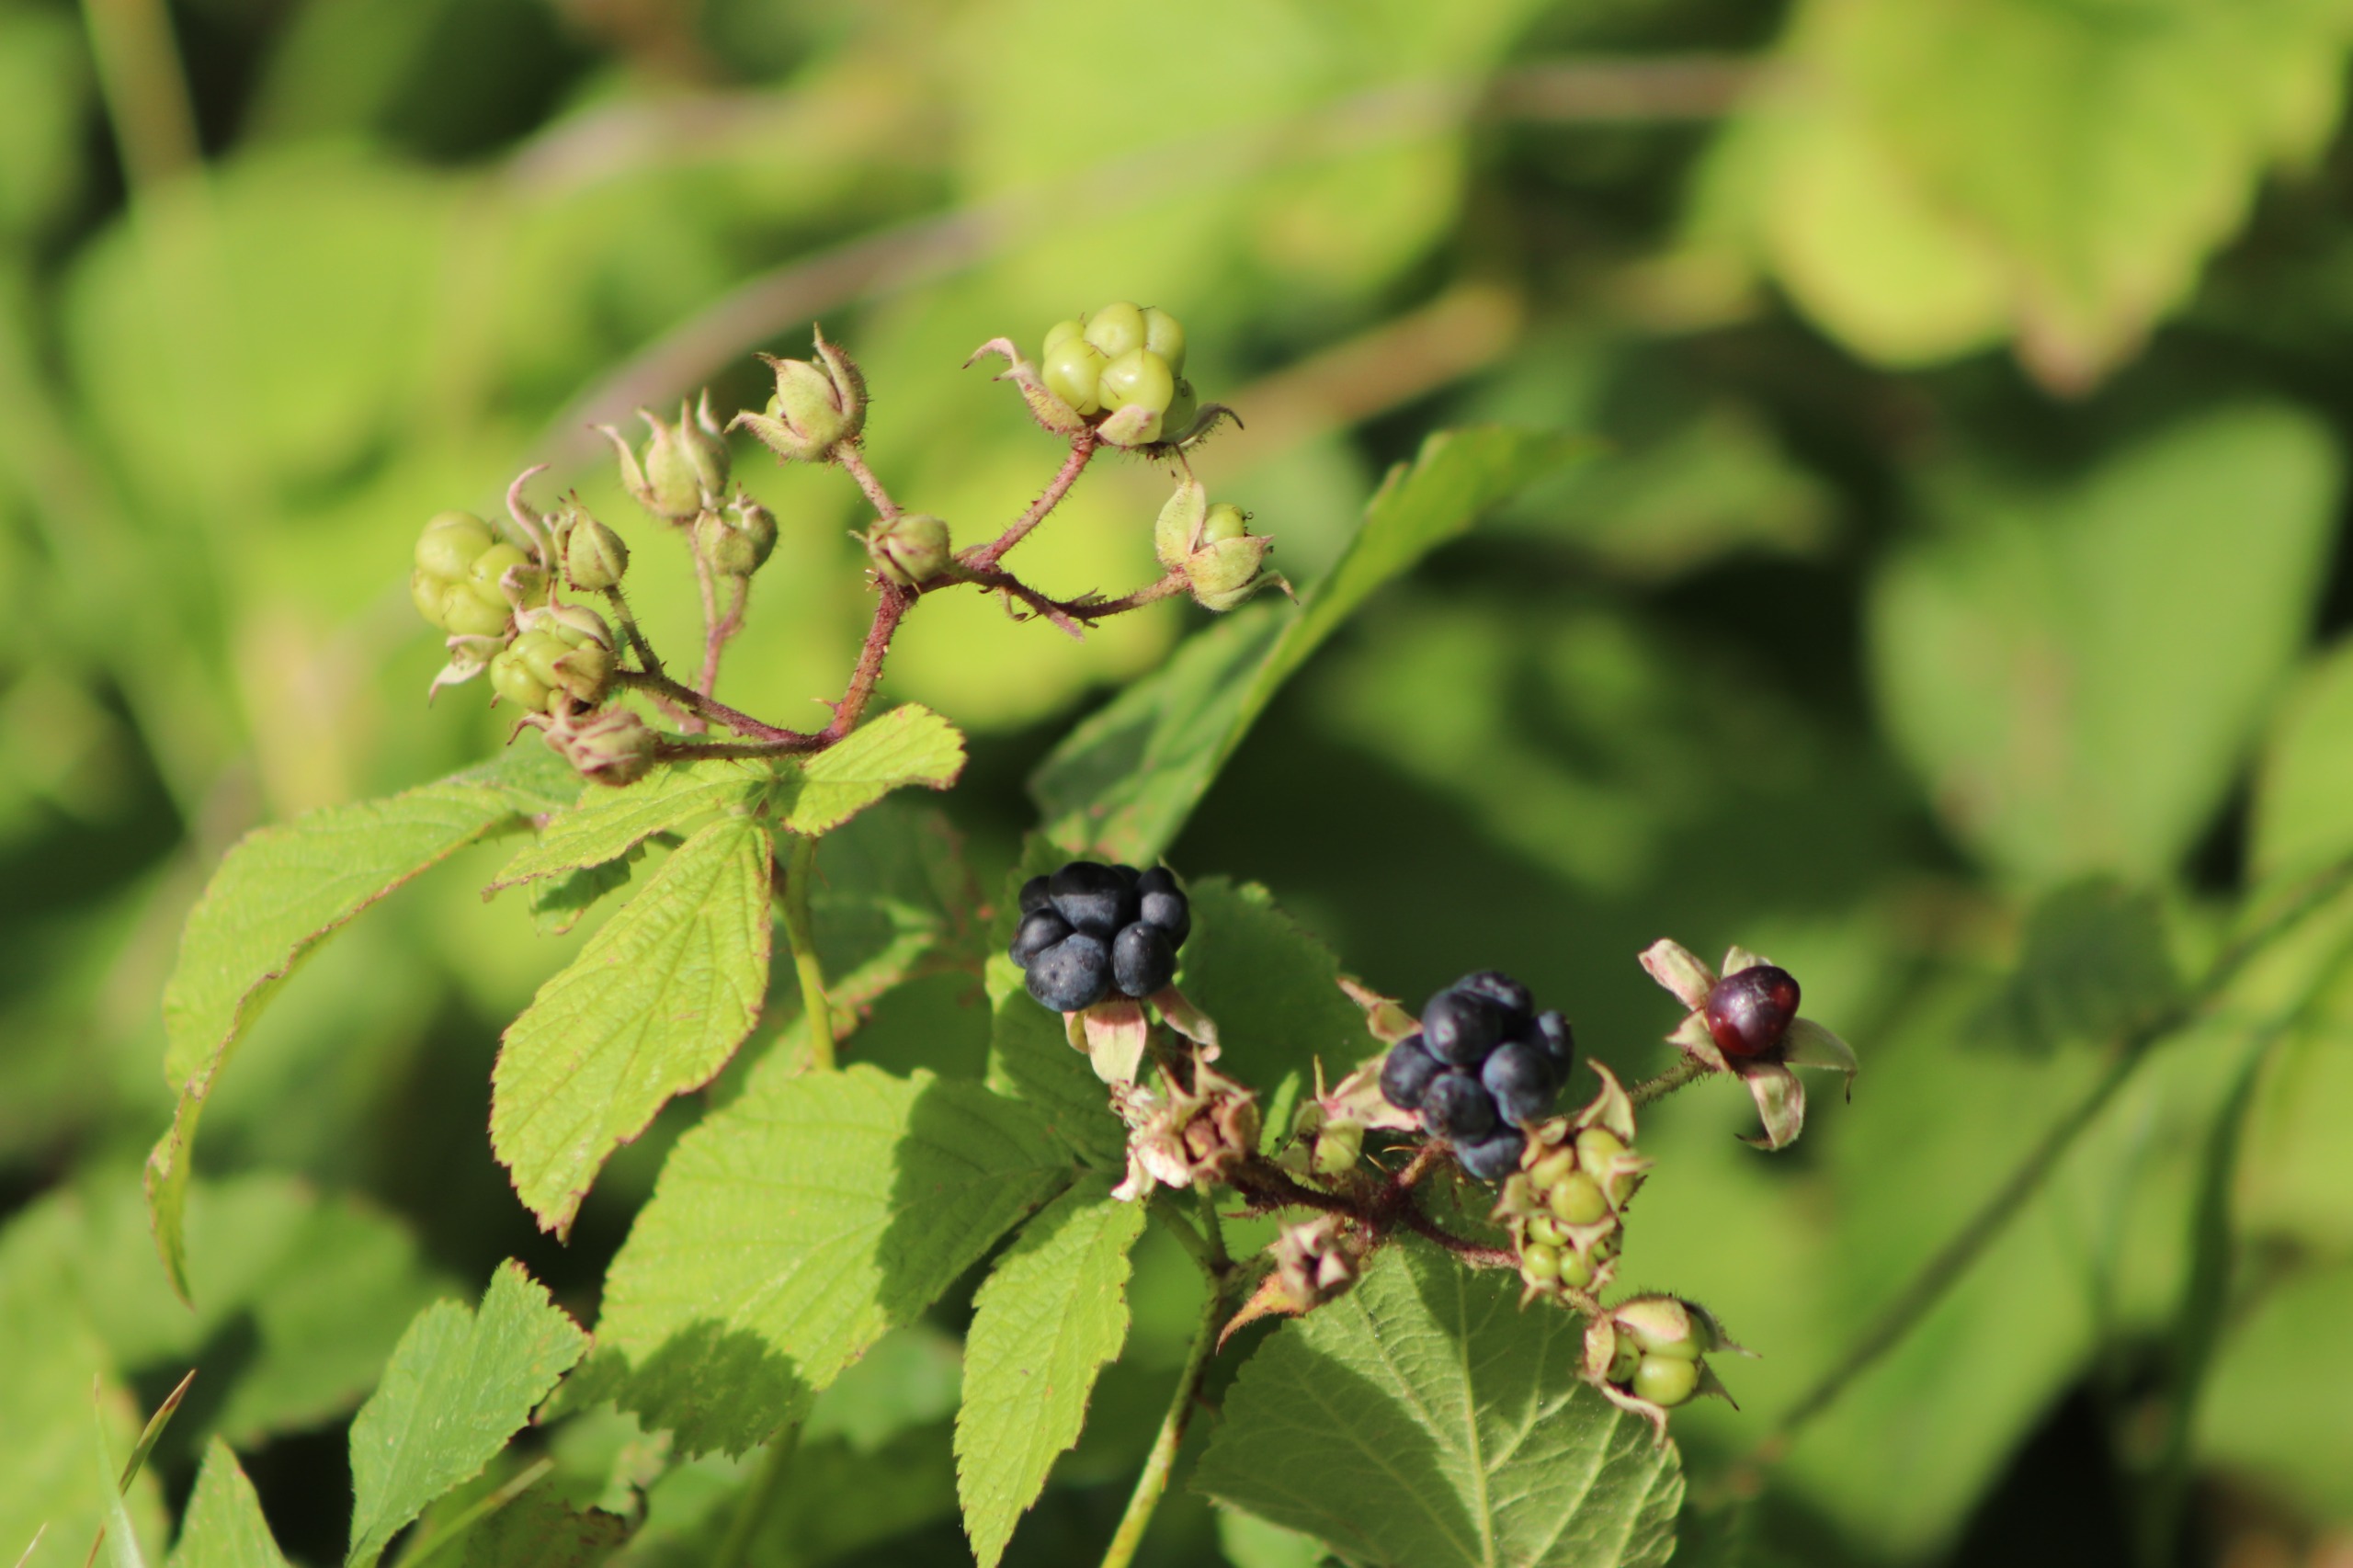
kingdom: Plantae
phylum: Tracheophyta
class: Magnoliopsida
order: Rosales
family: Rosaceae
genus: Rubus
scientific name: Rubus caesius
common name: Korbær
